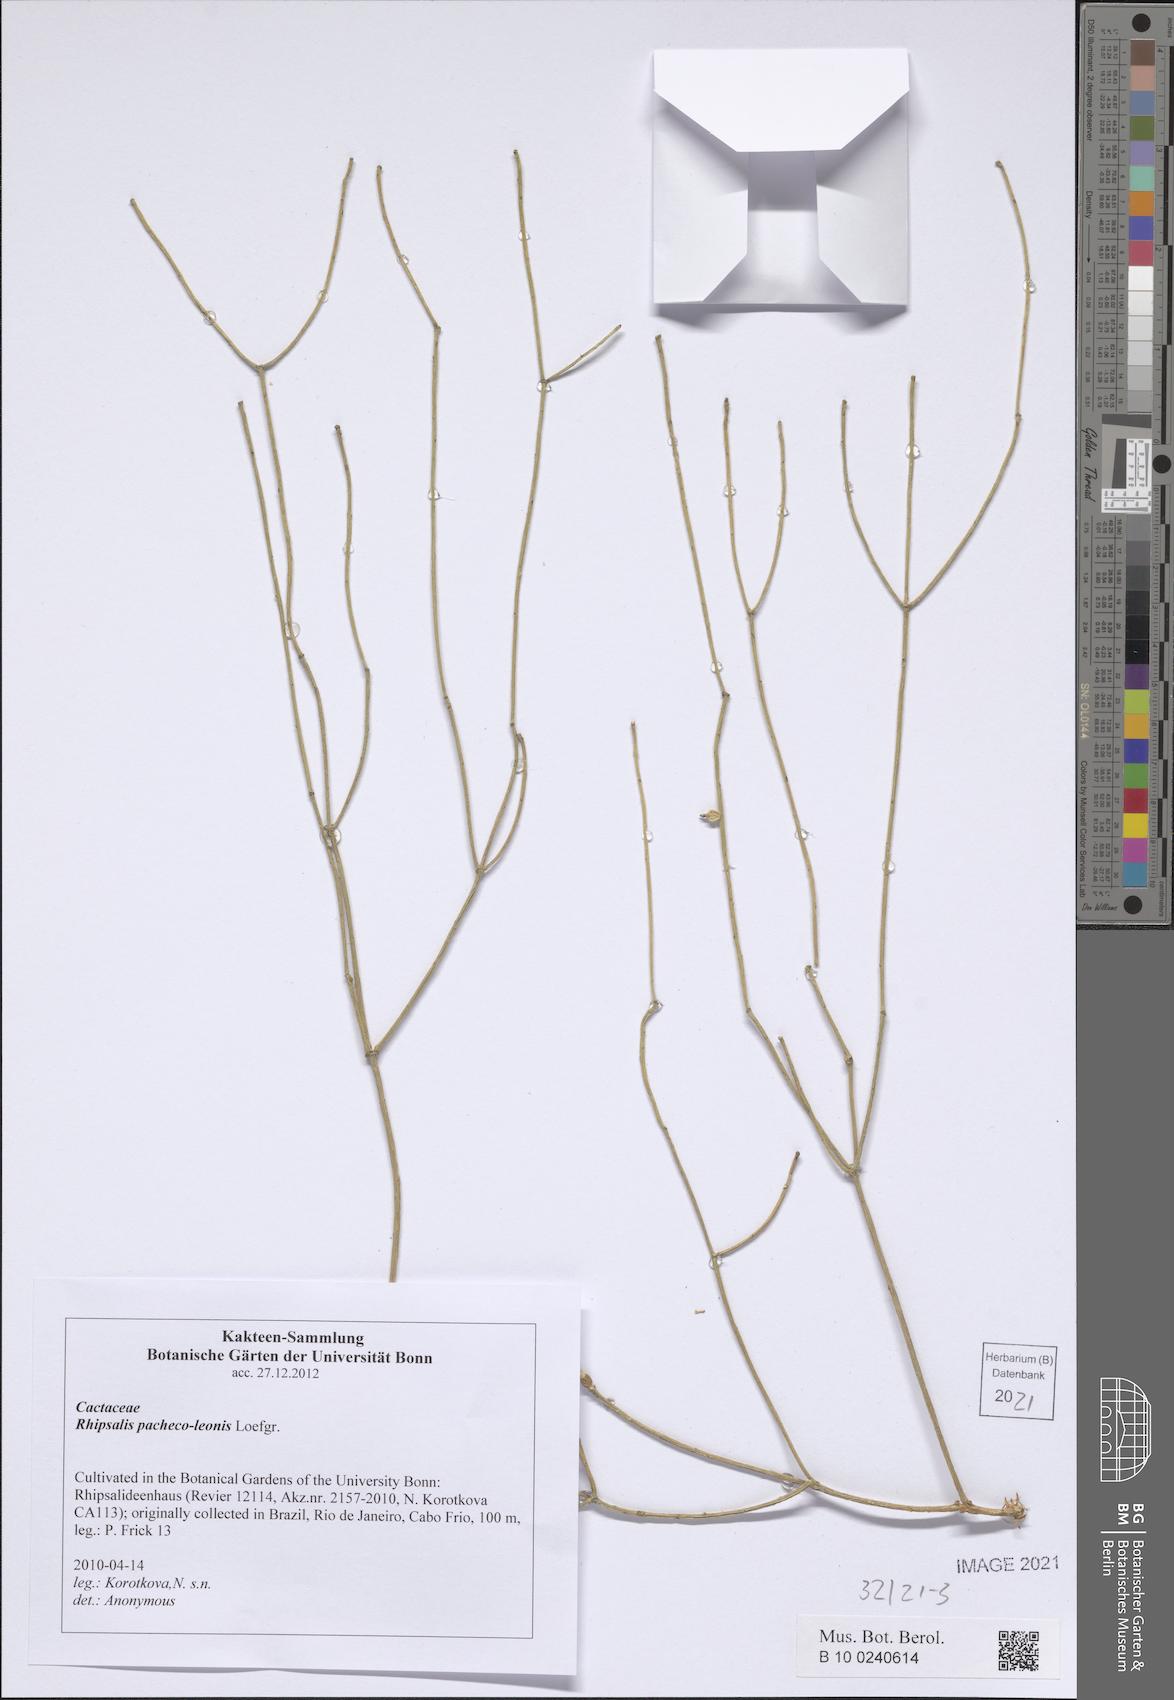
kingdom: Plantae
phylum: Tracheophyta
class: Magnoliopsida
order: Caryophyllales
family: Cactaceae
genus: Rhipsalis
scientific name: Rhipsalis pacheco-leonis
